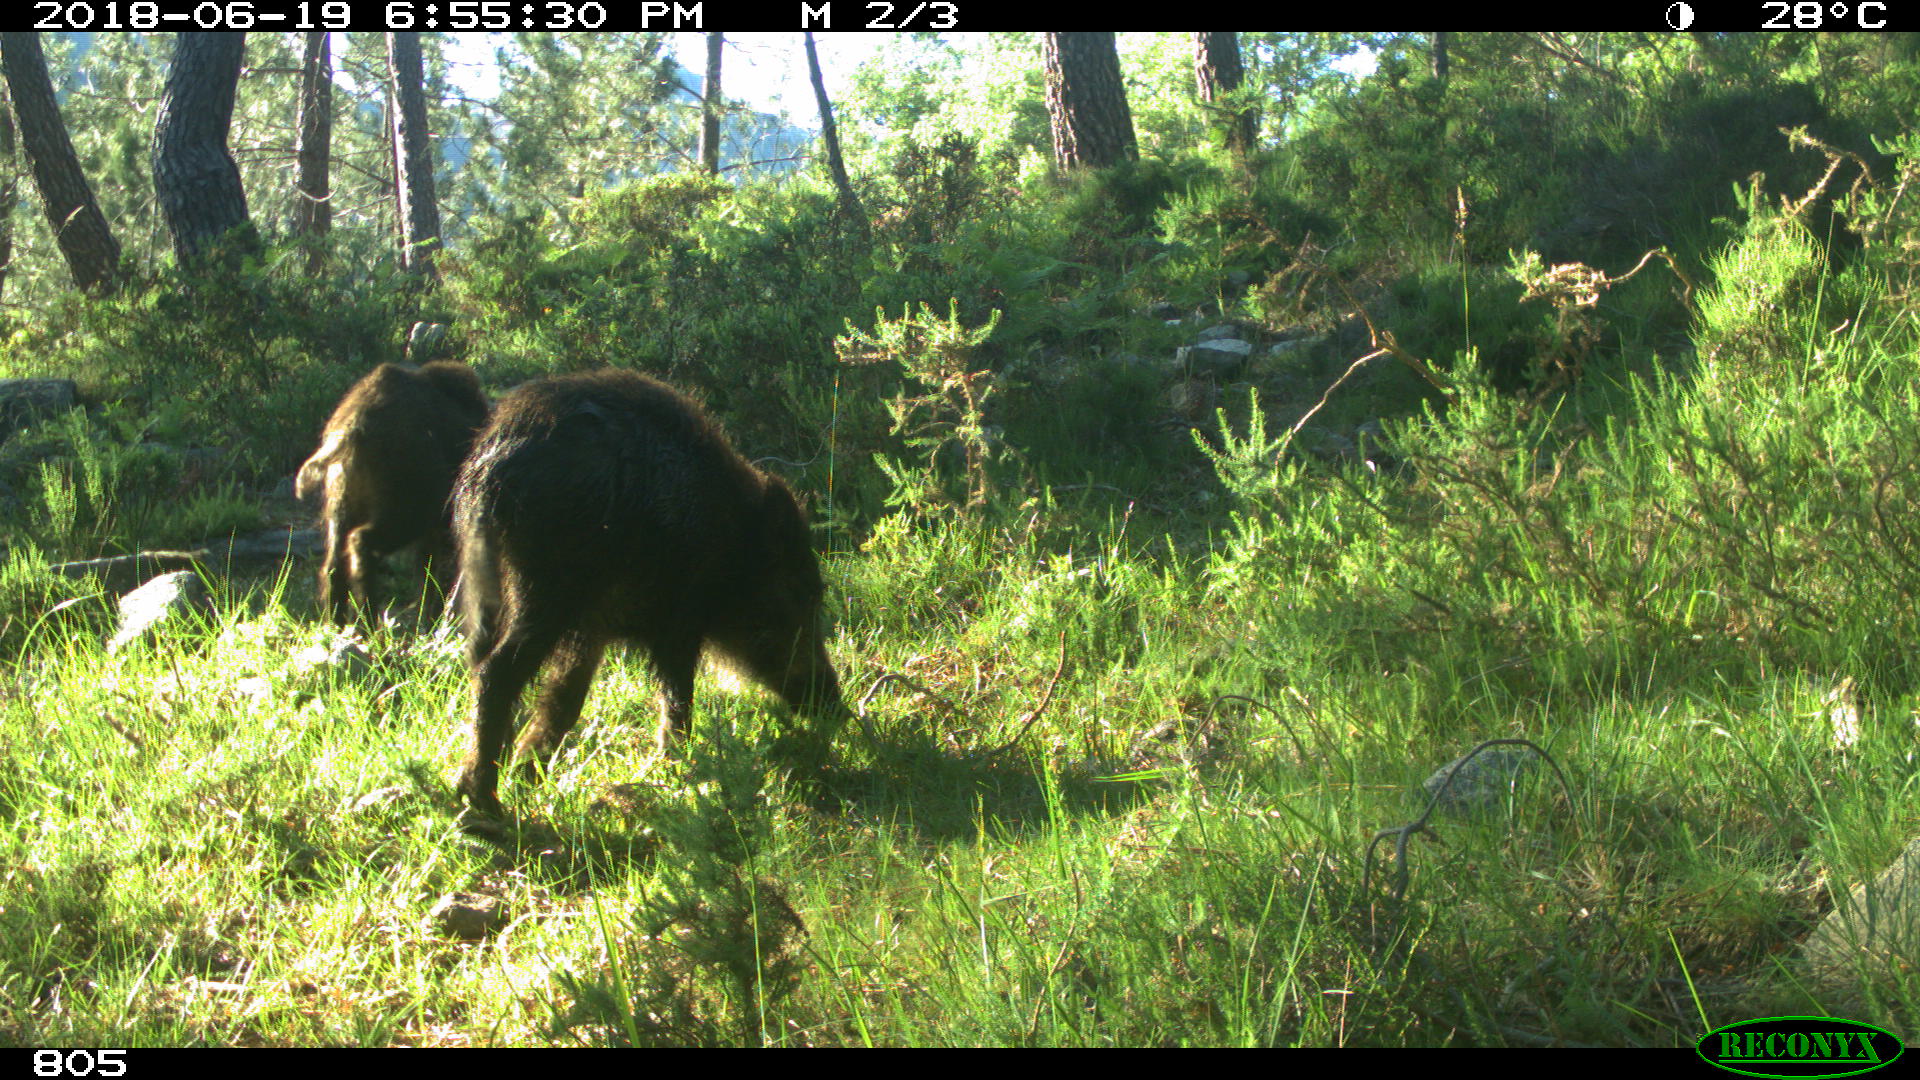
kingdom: Animalia
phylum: Chordata
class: Mammalia
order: Artiodactyla
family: Suidae
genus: Sus
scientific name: Sus scrofa
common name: Wild boar
